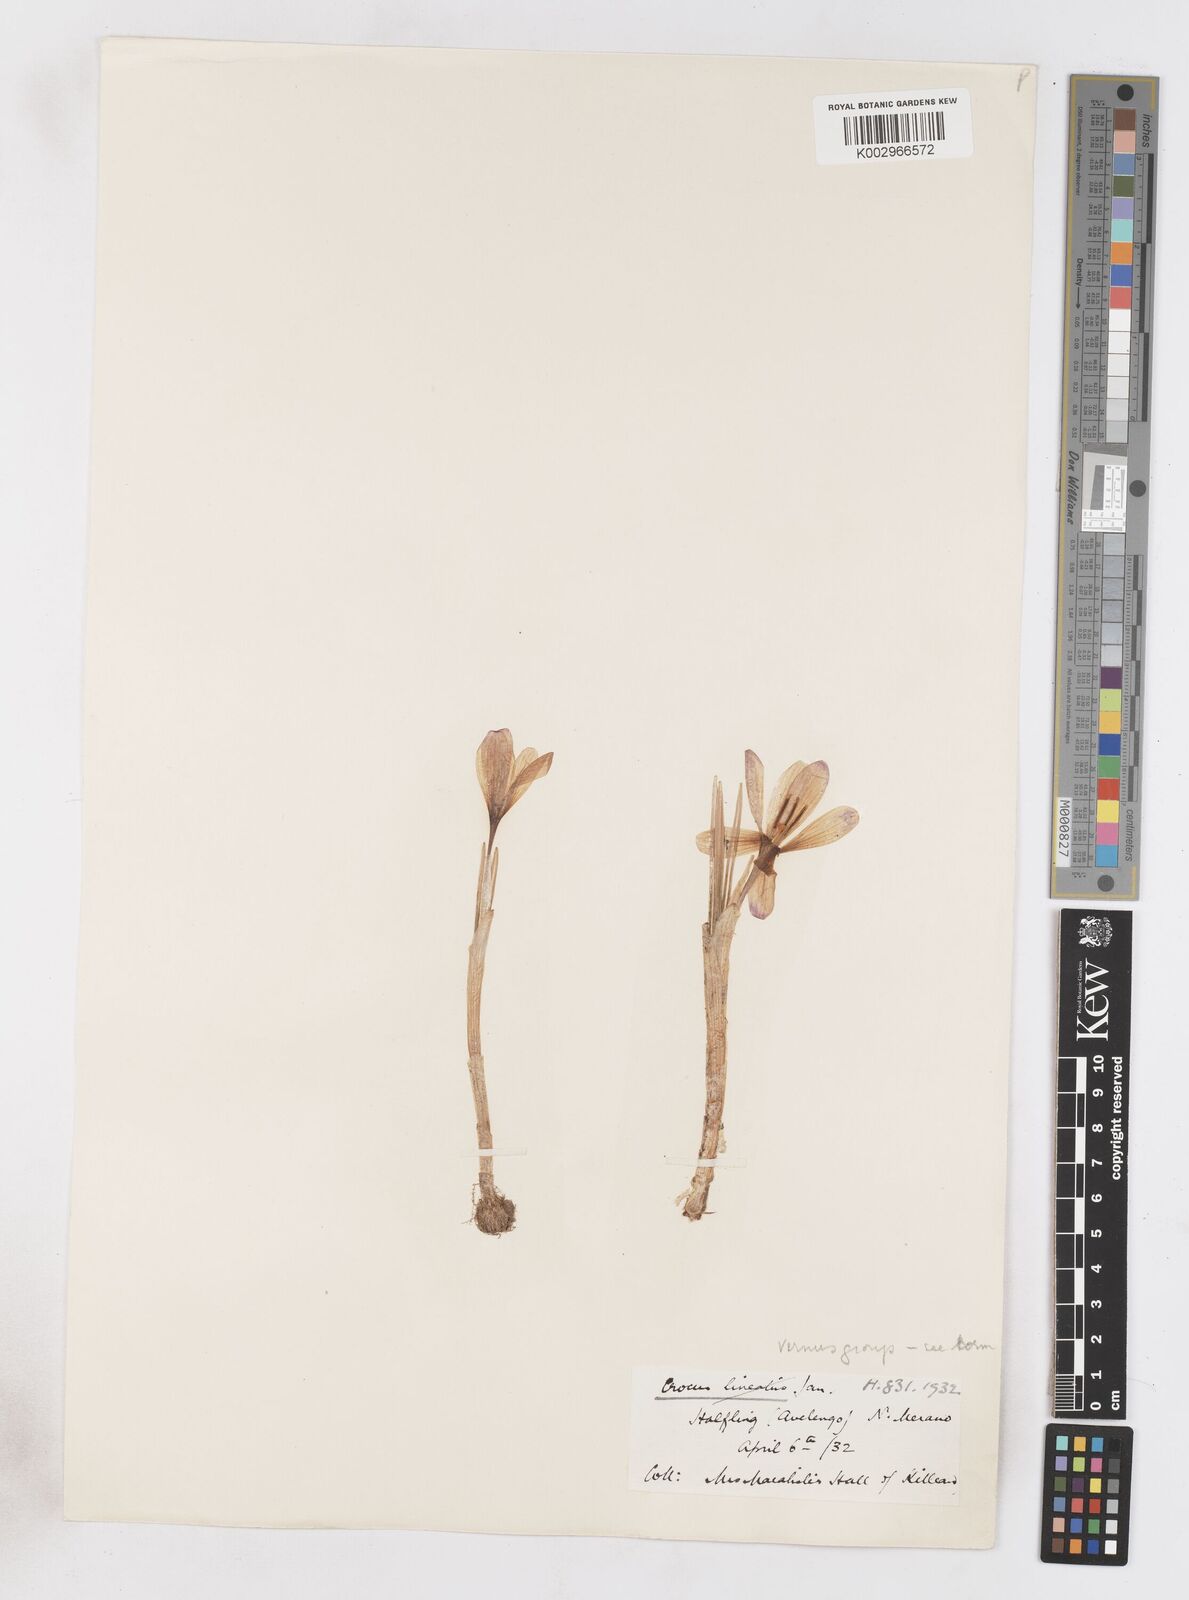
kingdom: Plantae
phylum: Tracheophyta
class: Liliopsida
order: Asparagales
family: Iridaceae
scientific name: Iridaceae
